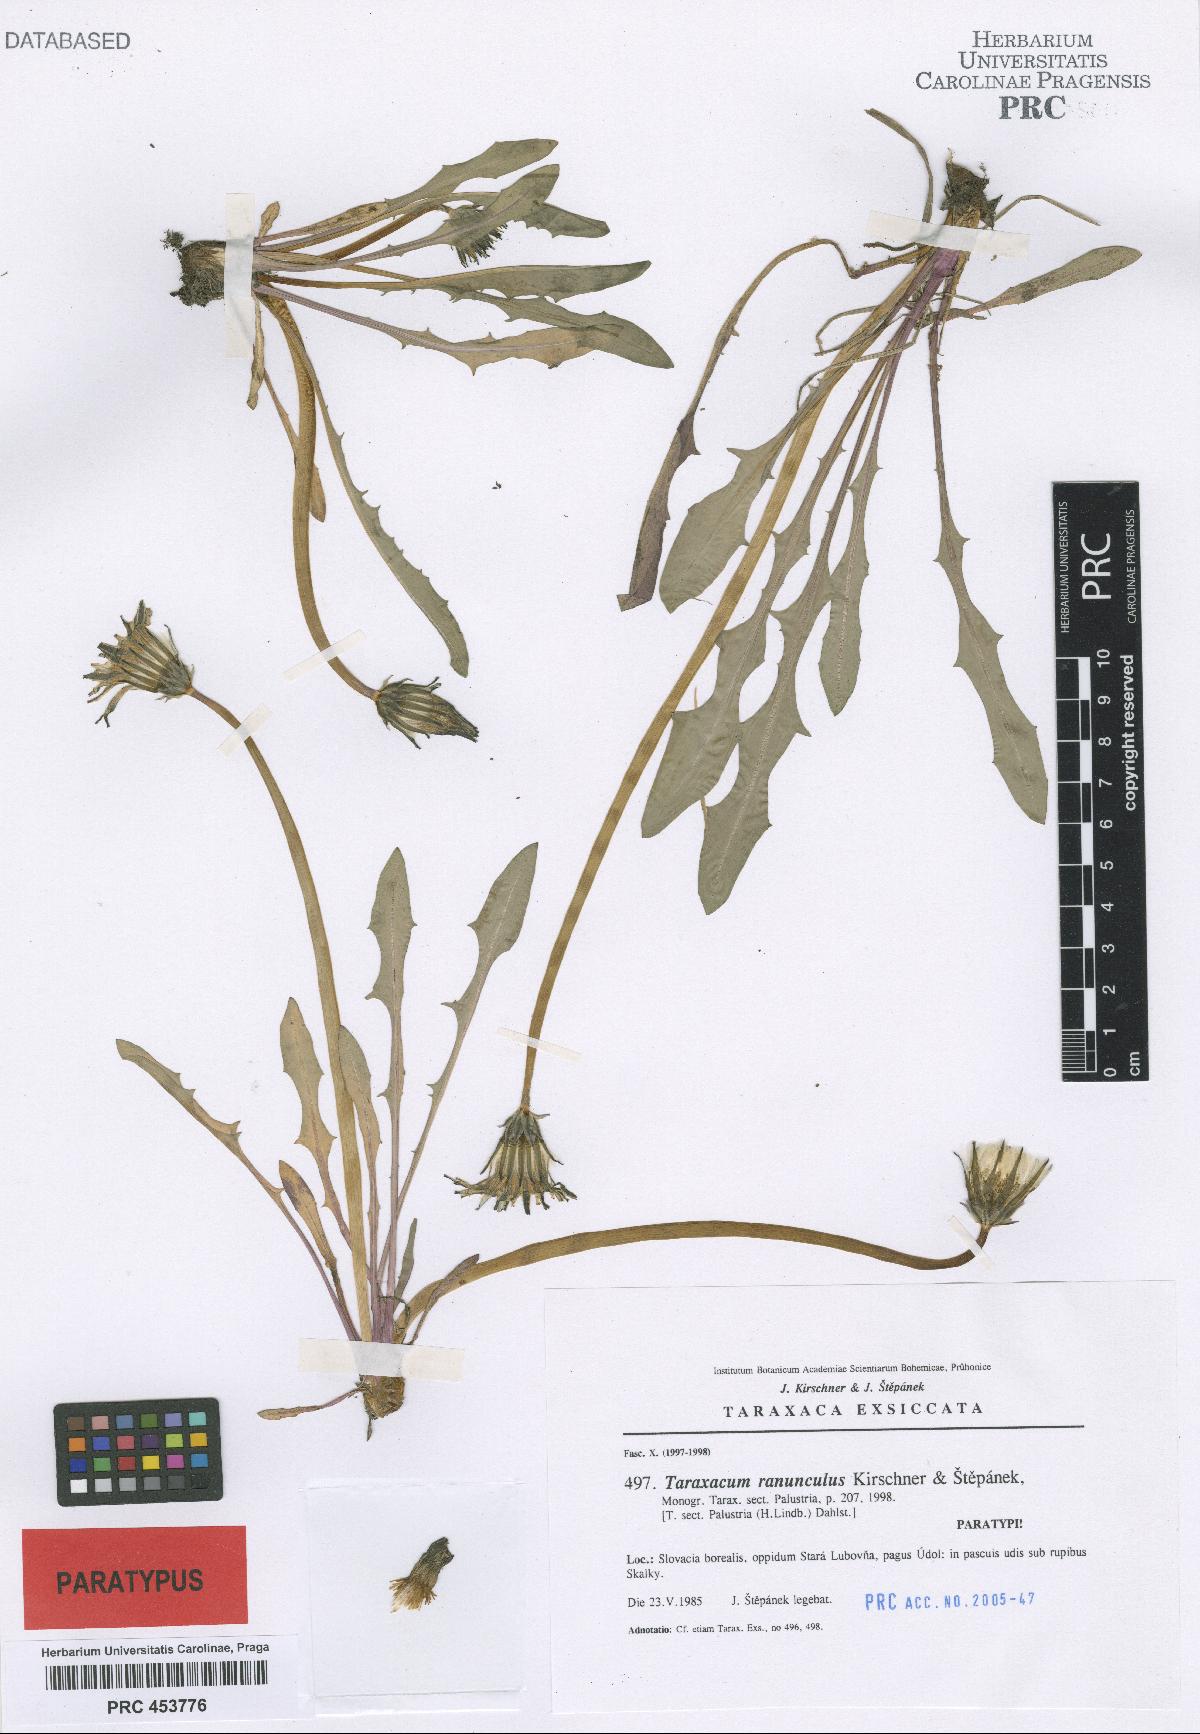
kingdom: Plantae
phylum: Tracheophyta
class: Magnoliopsida
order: Asterales
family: Asteraceae
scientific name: Asteraceae
